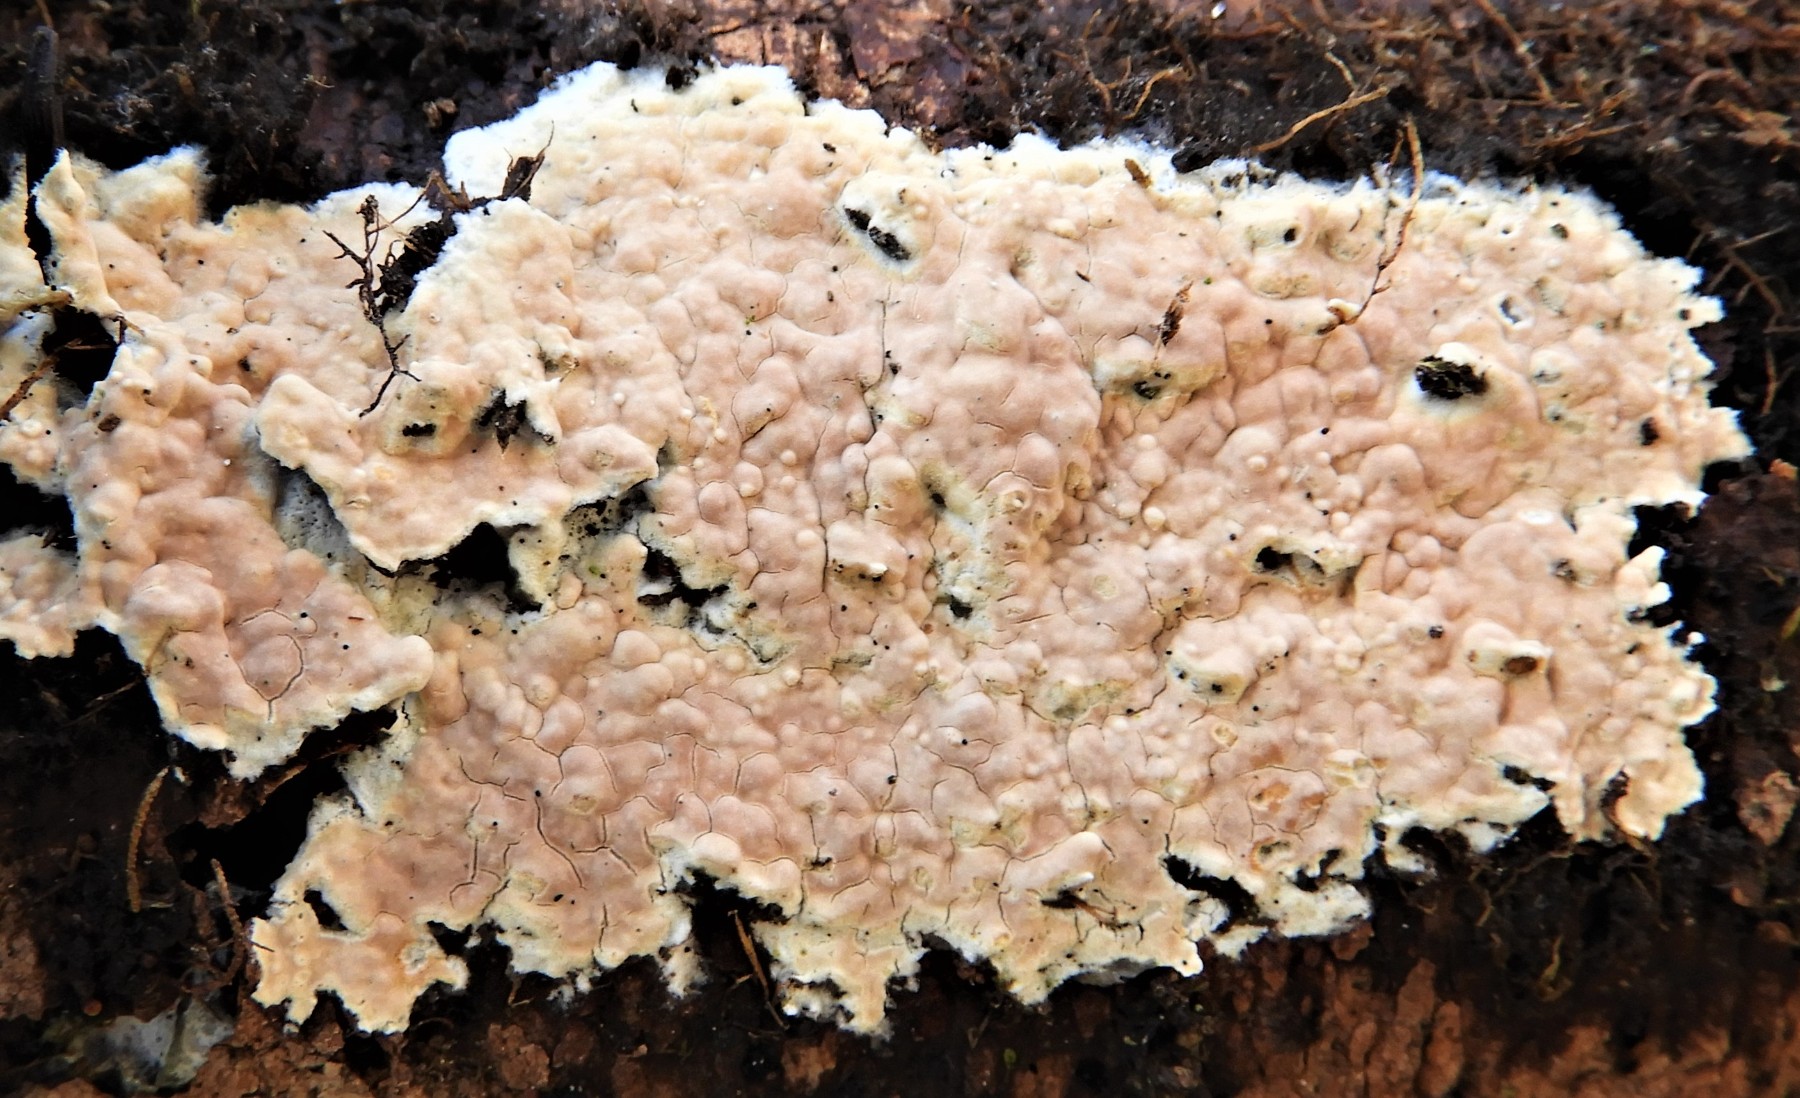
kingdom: Fungi
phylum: Basidiomycota
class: Agaricomycetes
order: Agaricales
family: Physalacriaceae
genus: Cylindrobasidium
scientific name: Cylindrobasidium evolvens
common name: sprækkehinde
